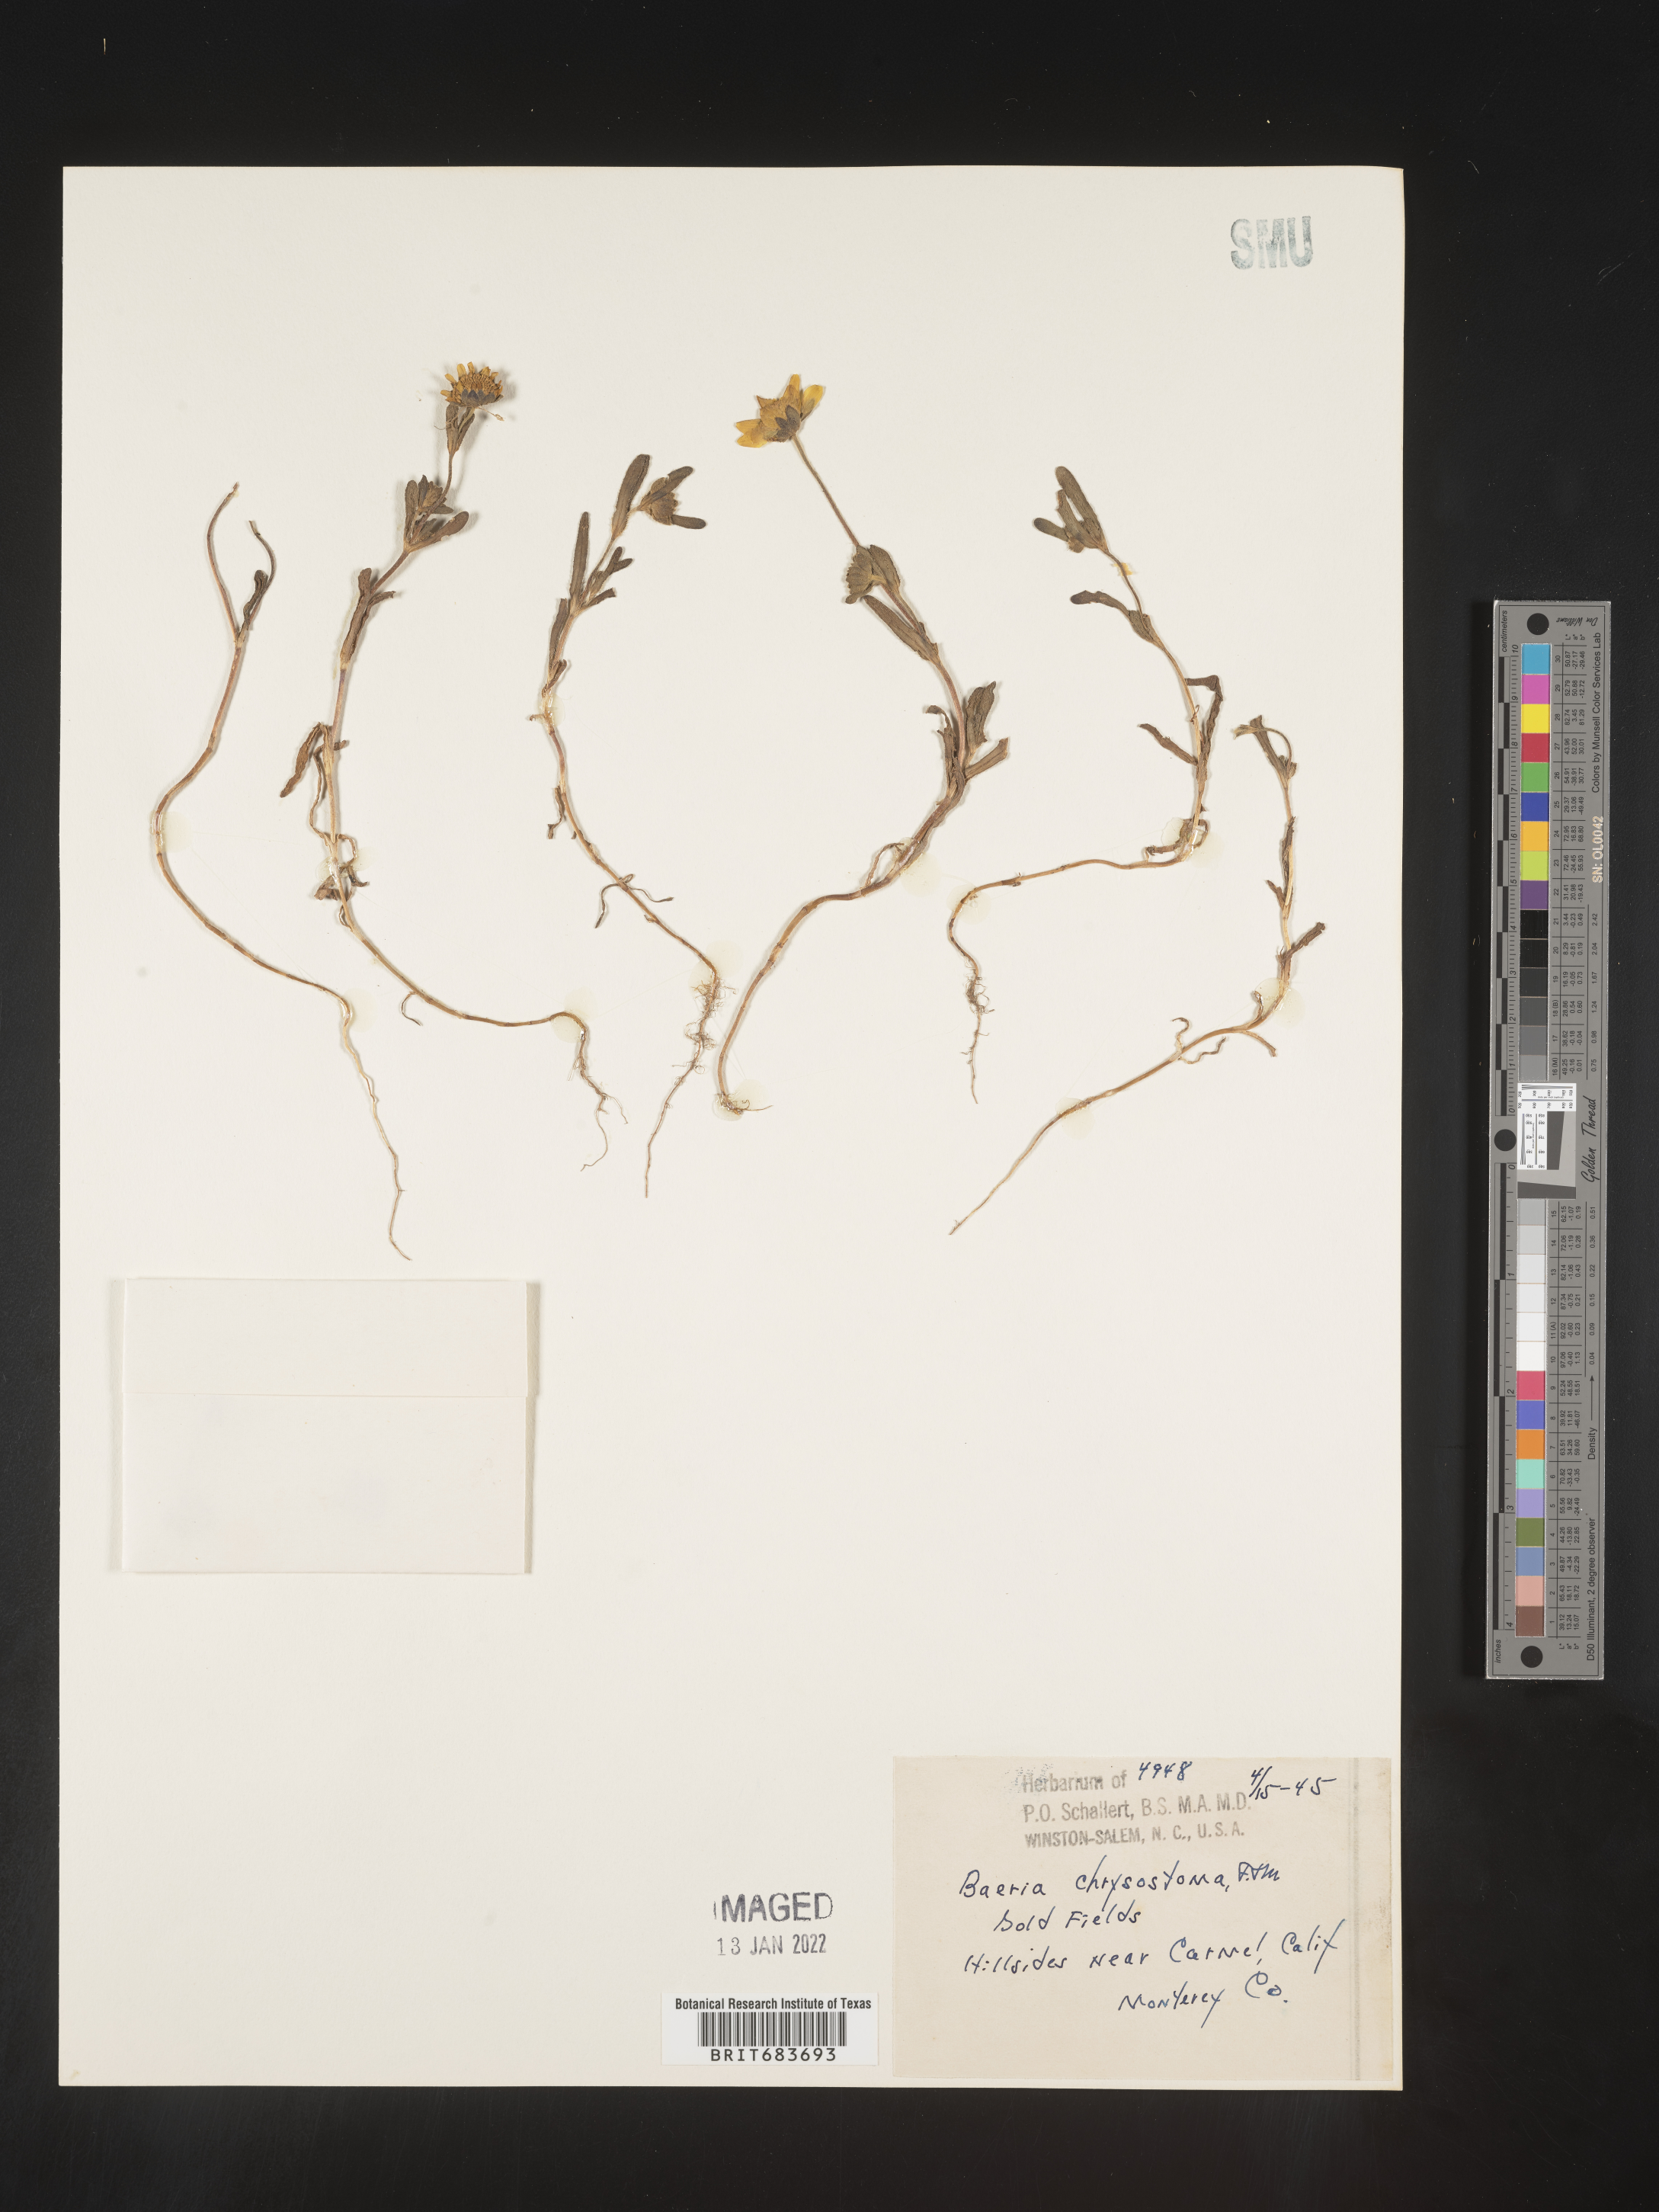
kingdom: Plantae
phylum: Tracheophyta
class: Magnoliopsida
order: Asterales
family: Asteraceae
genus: Lasthenia
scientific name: Lasthenia
